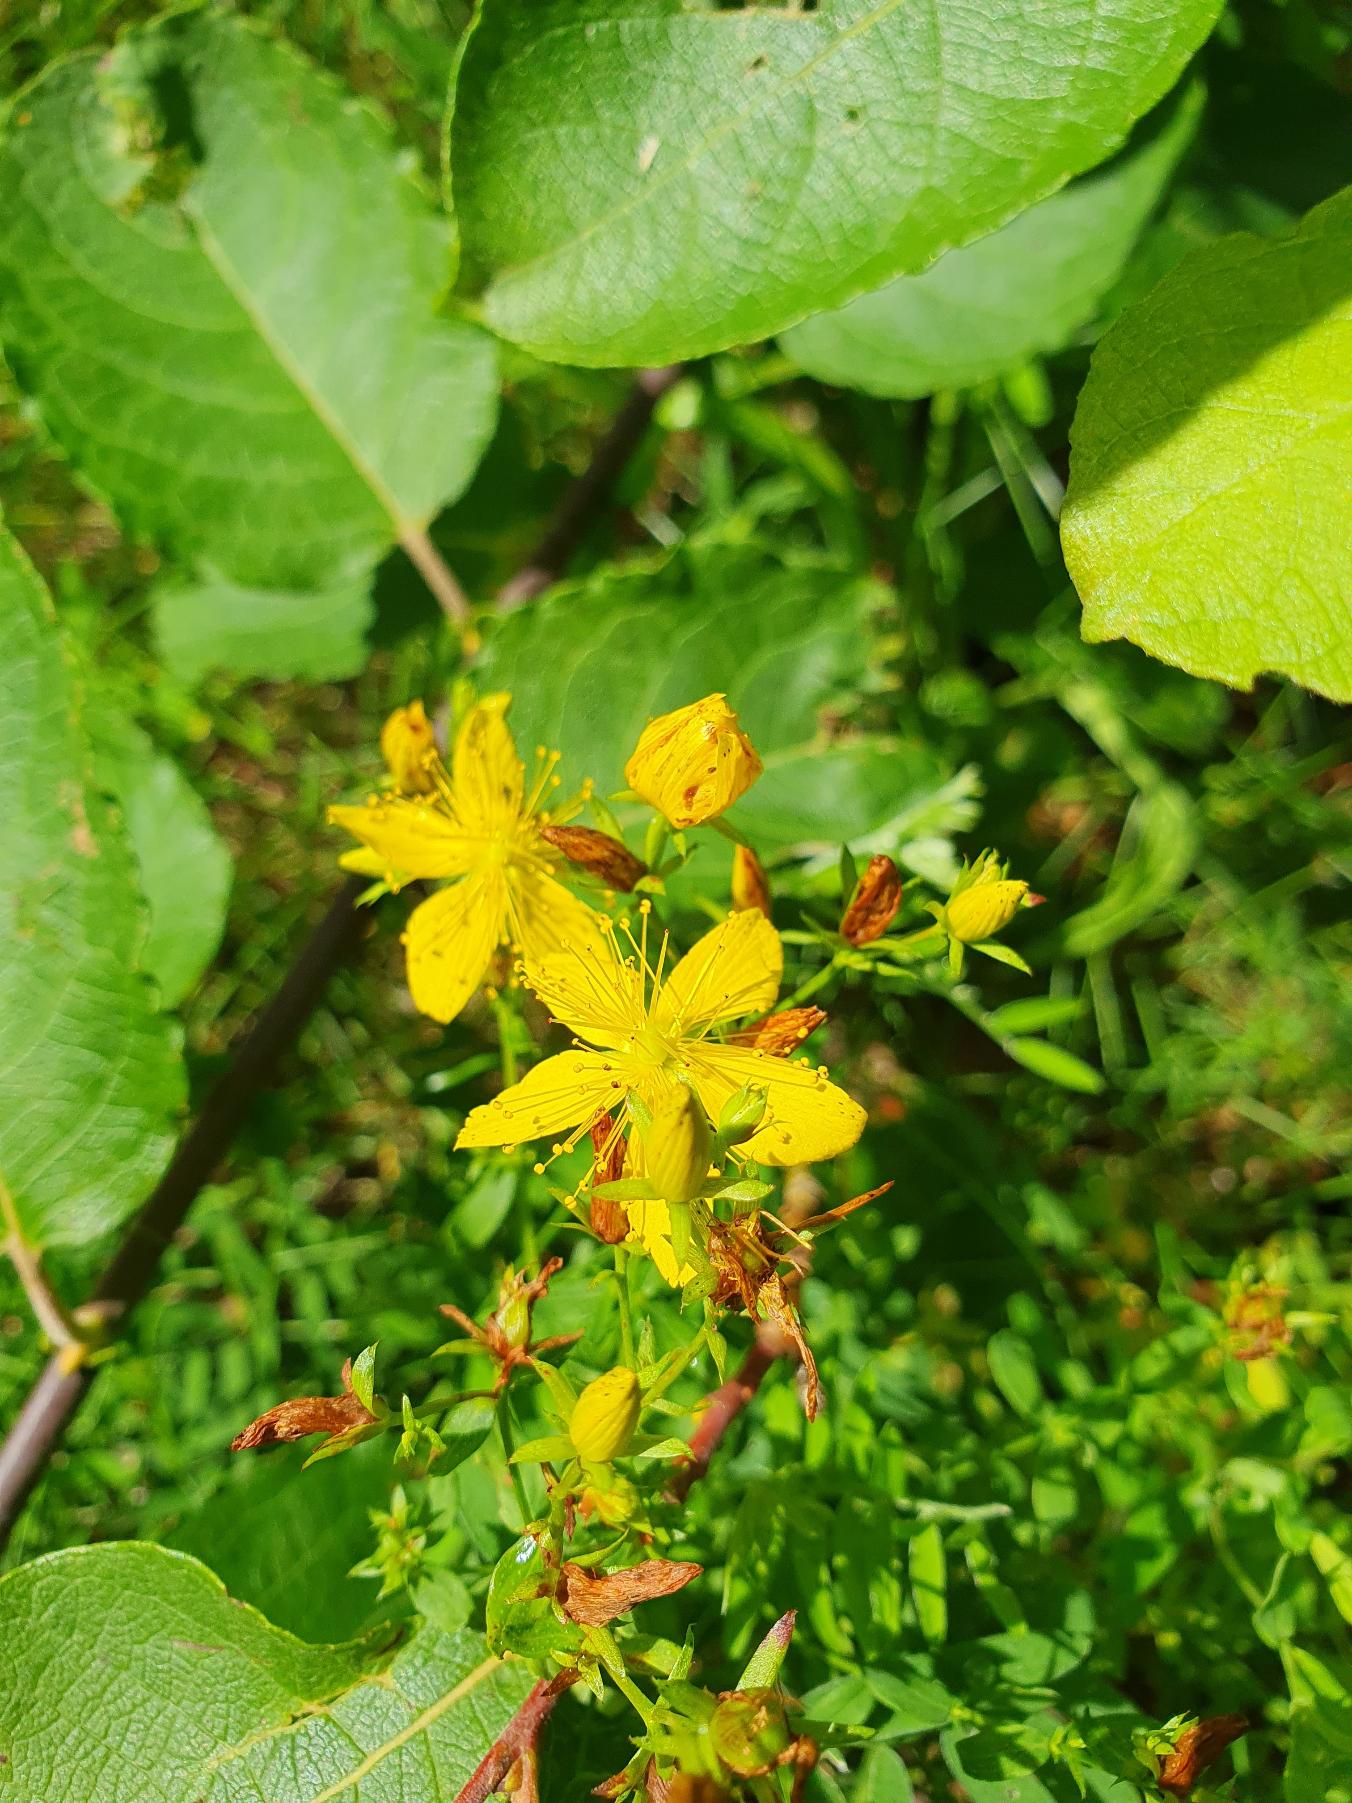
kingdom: Plantae
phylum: Tracheophyta
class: Magnoliopsida
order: Malpighiales
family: Hypericaceae
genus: Hypericum
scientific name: Hypericum perforatum
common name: Prikbladet perikon
